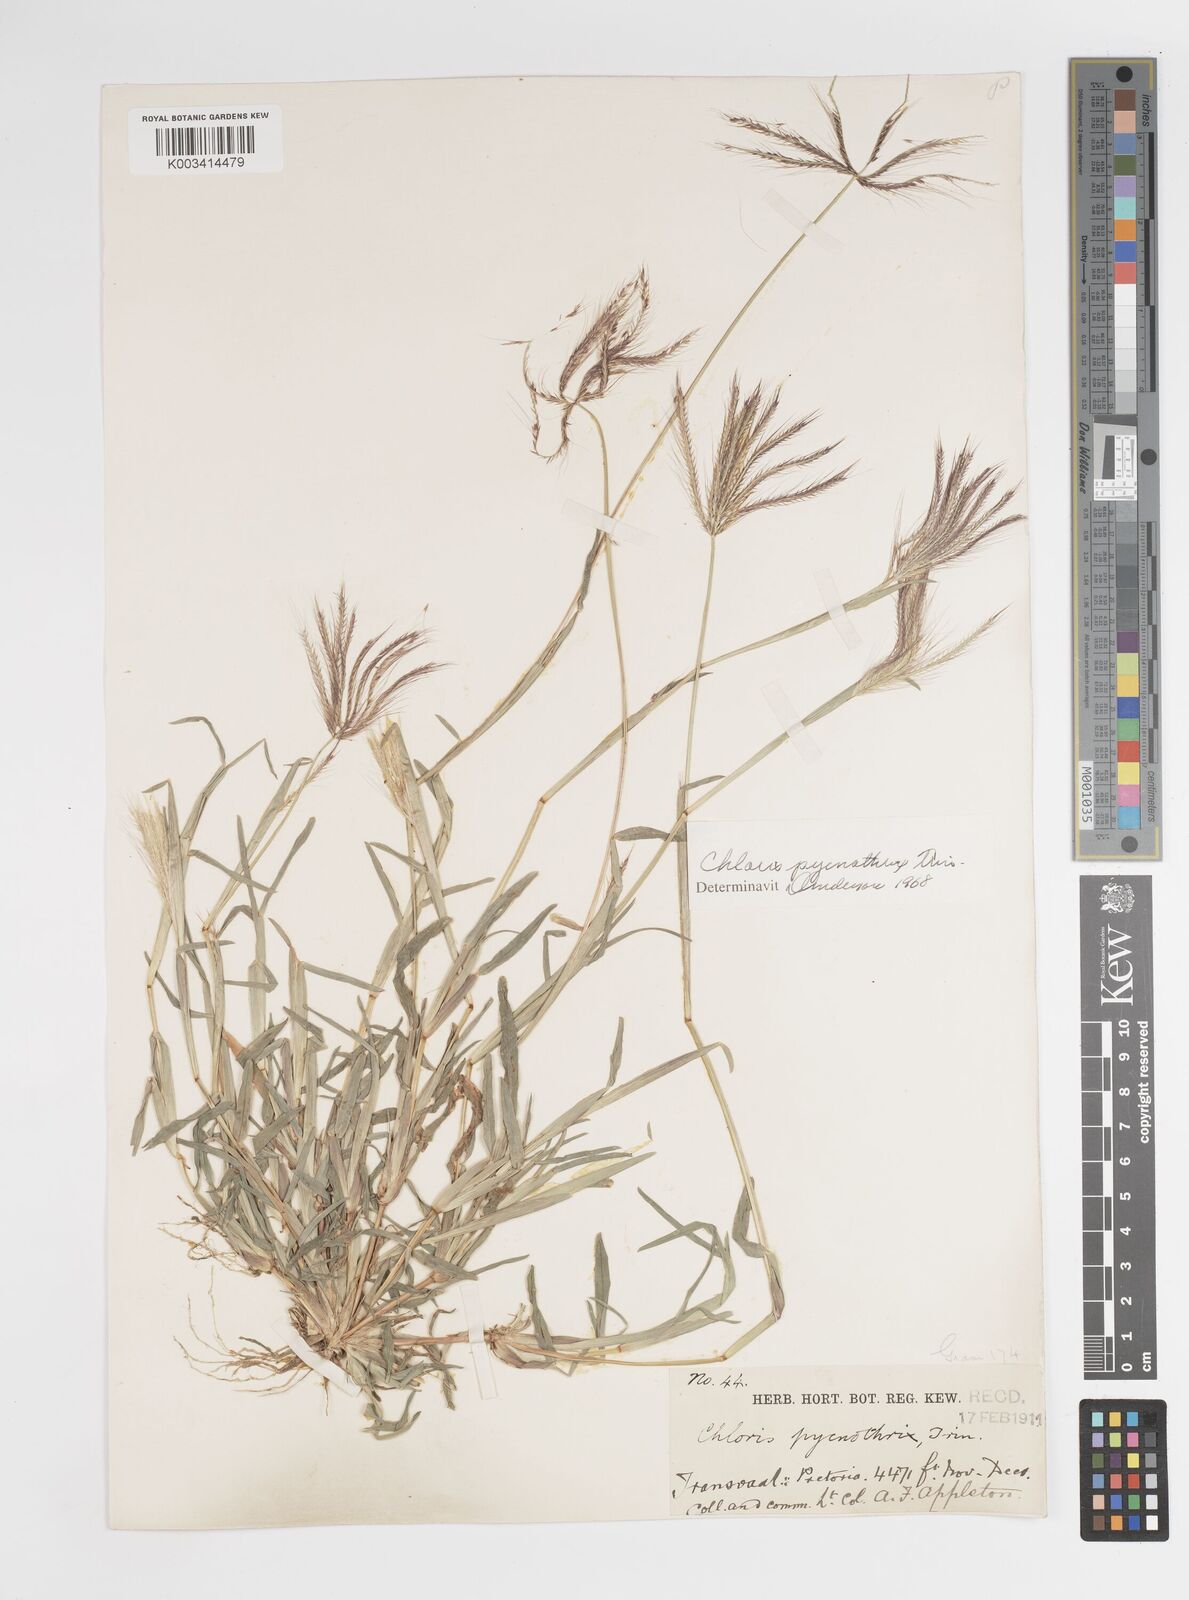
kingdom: Plantae
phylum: Tracheophyta
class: Liliopsida
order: Poales
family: Poaceae
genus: Chloris
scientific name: Chloris pycnothrix
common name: Spiderweb chloris
